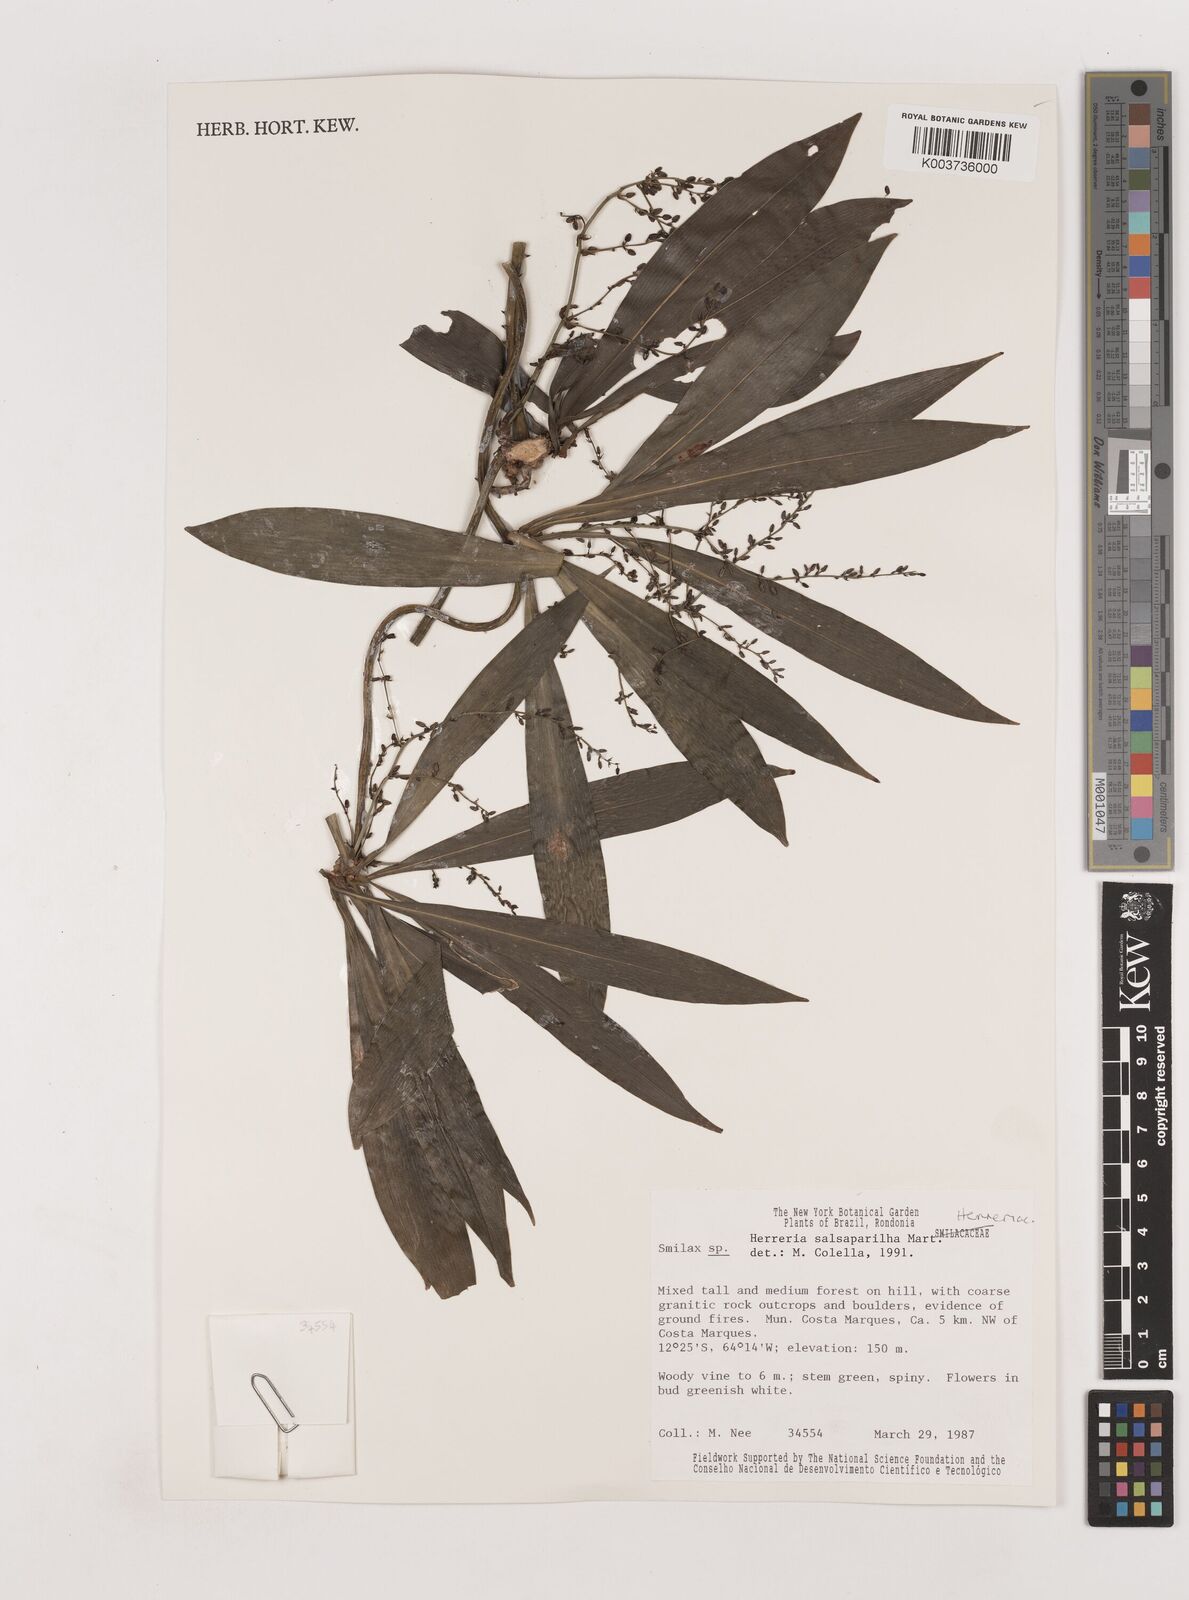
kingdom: Plantae
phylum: Tracheophyta
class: Liliopsida
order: Asparagales
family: Asparagaceae
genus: Herreria
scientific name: Herreria salsaparilha
